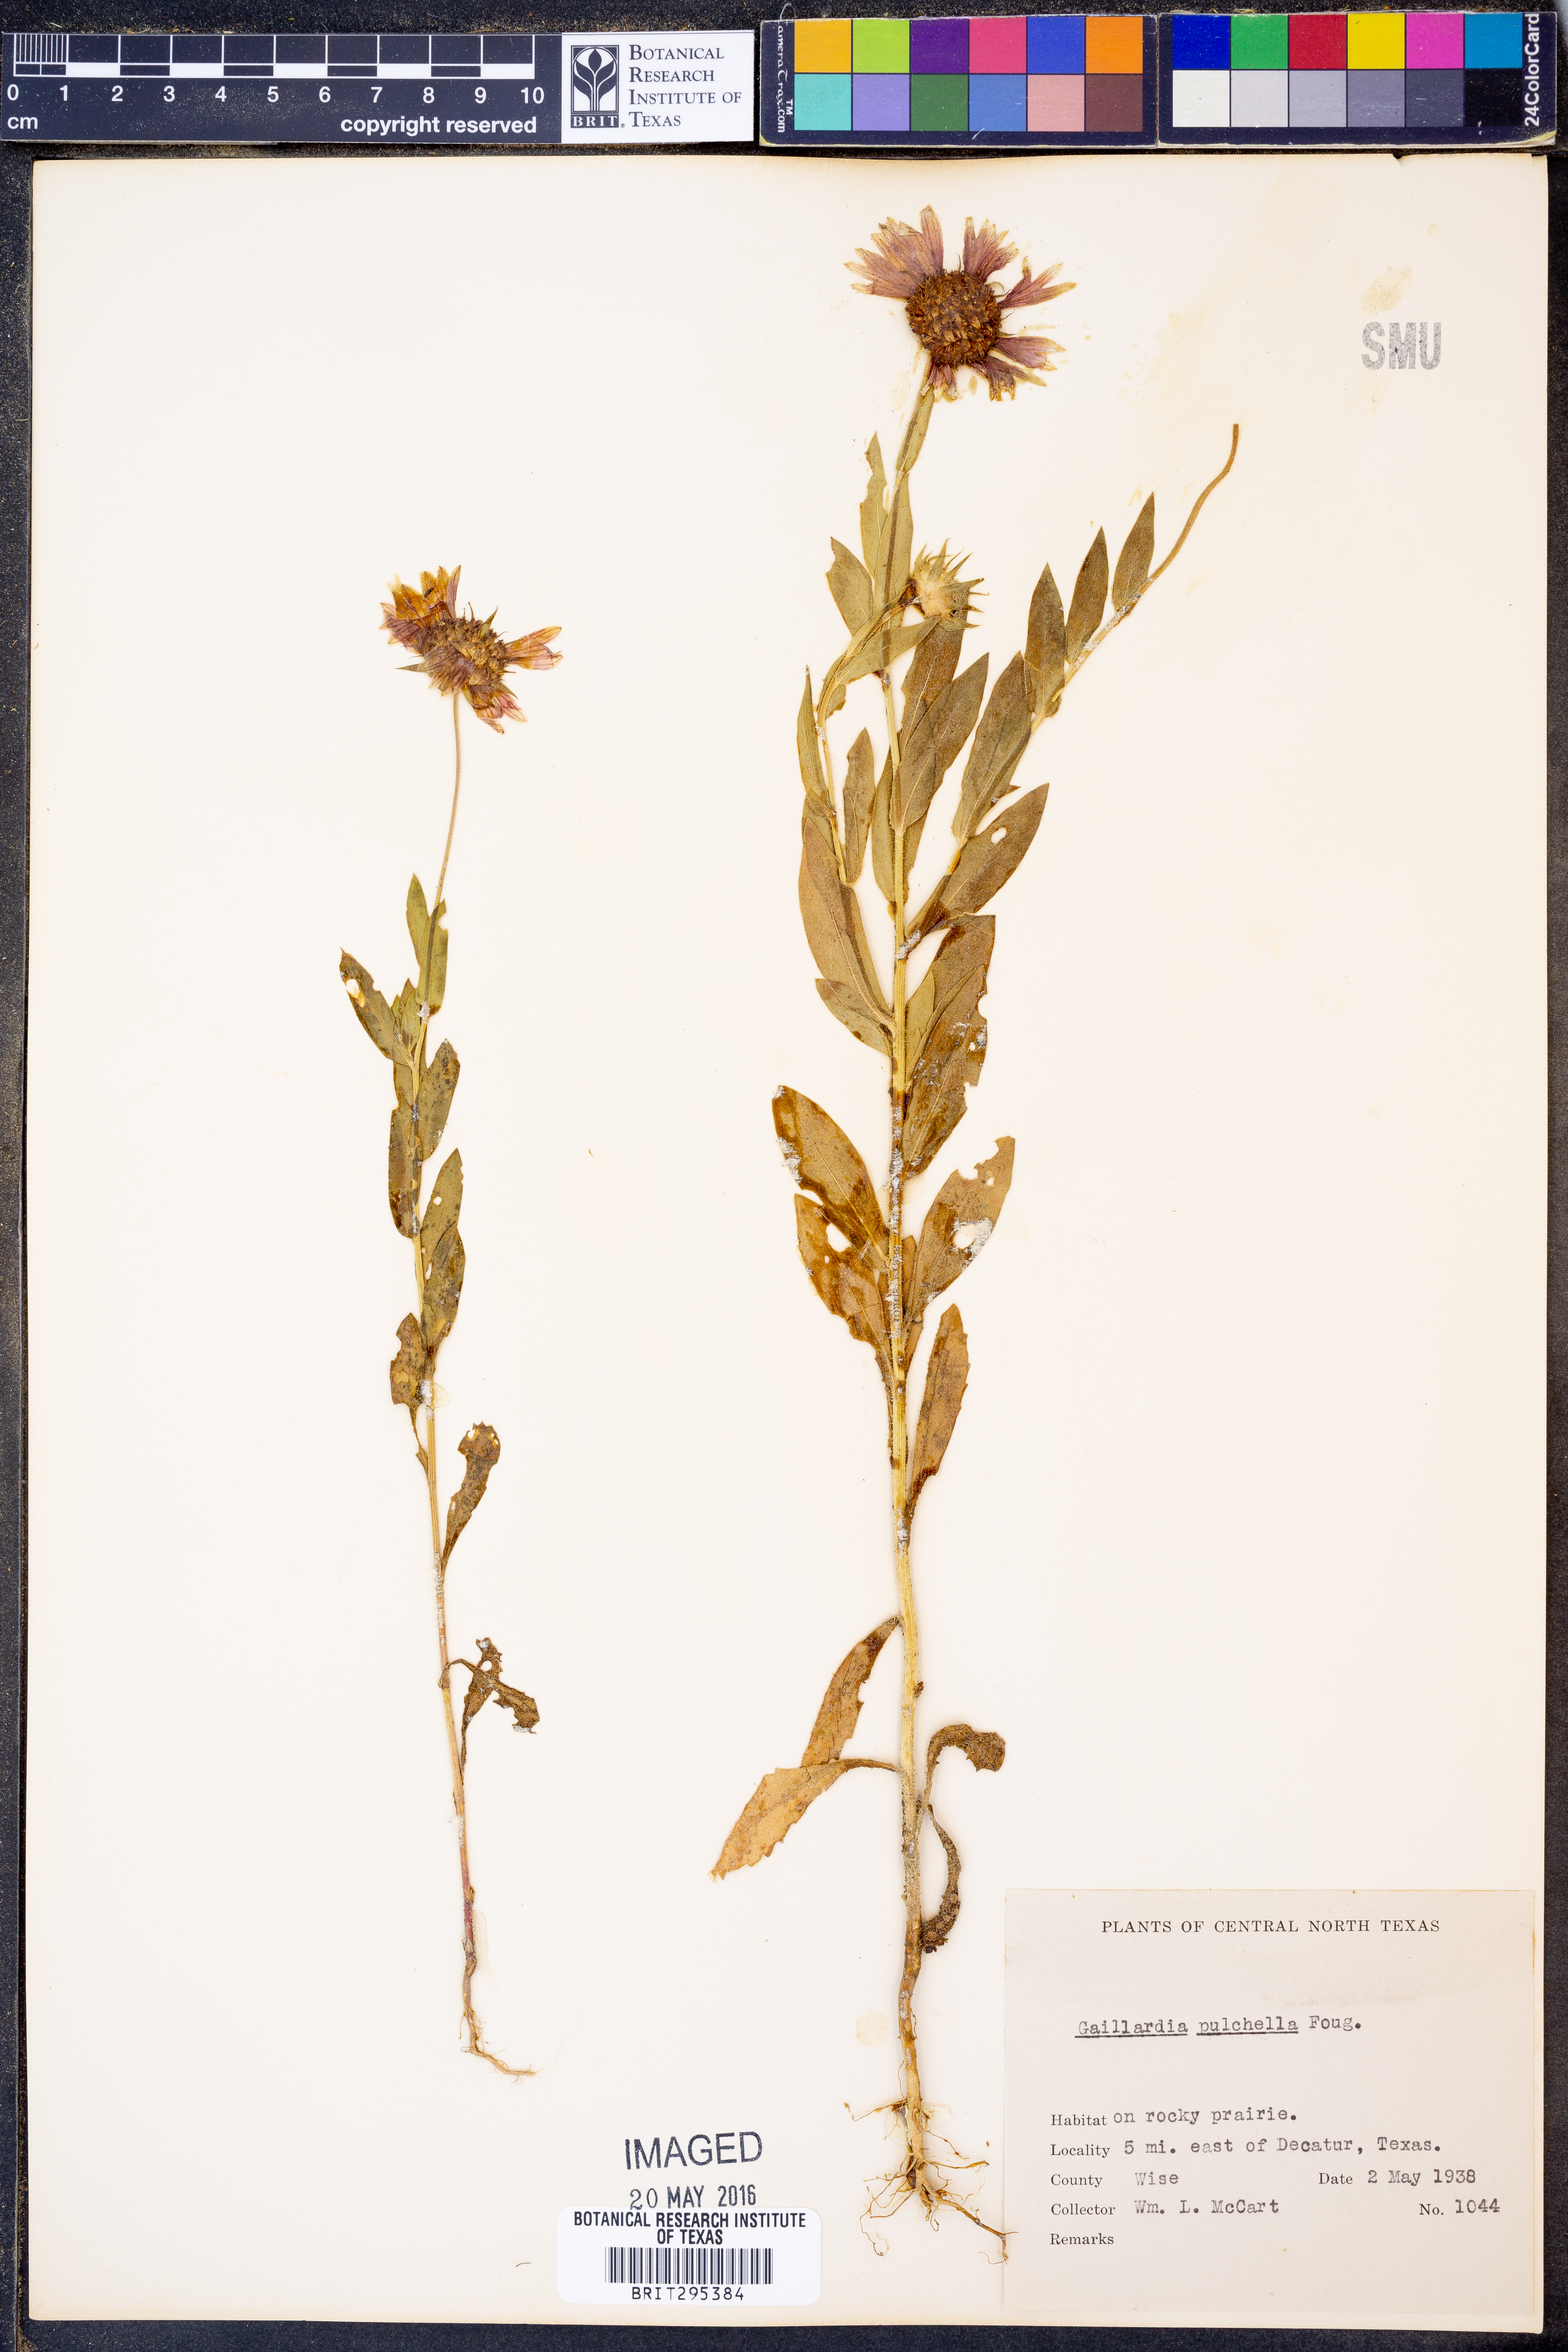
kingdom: Plantae
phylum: Tracheophyta
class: Magnoliopsida
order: Asterales
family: Asteraceae
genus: Gaillardia
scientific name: Gaillardia pulchella
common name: Firewheel
